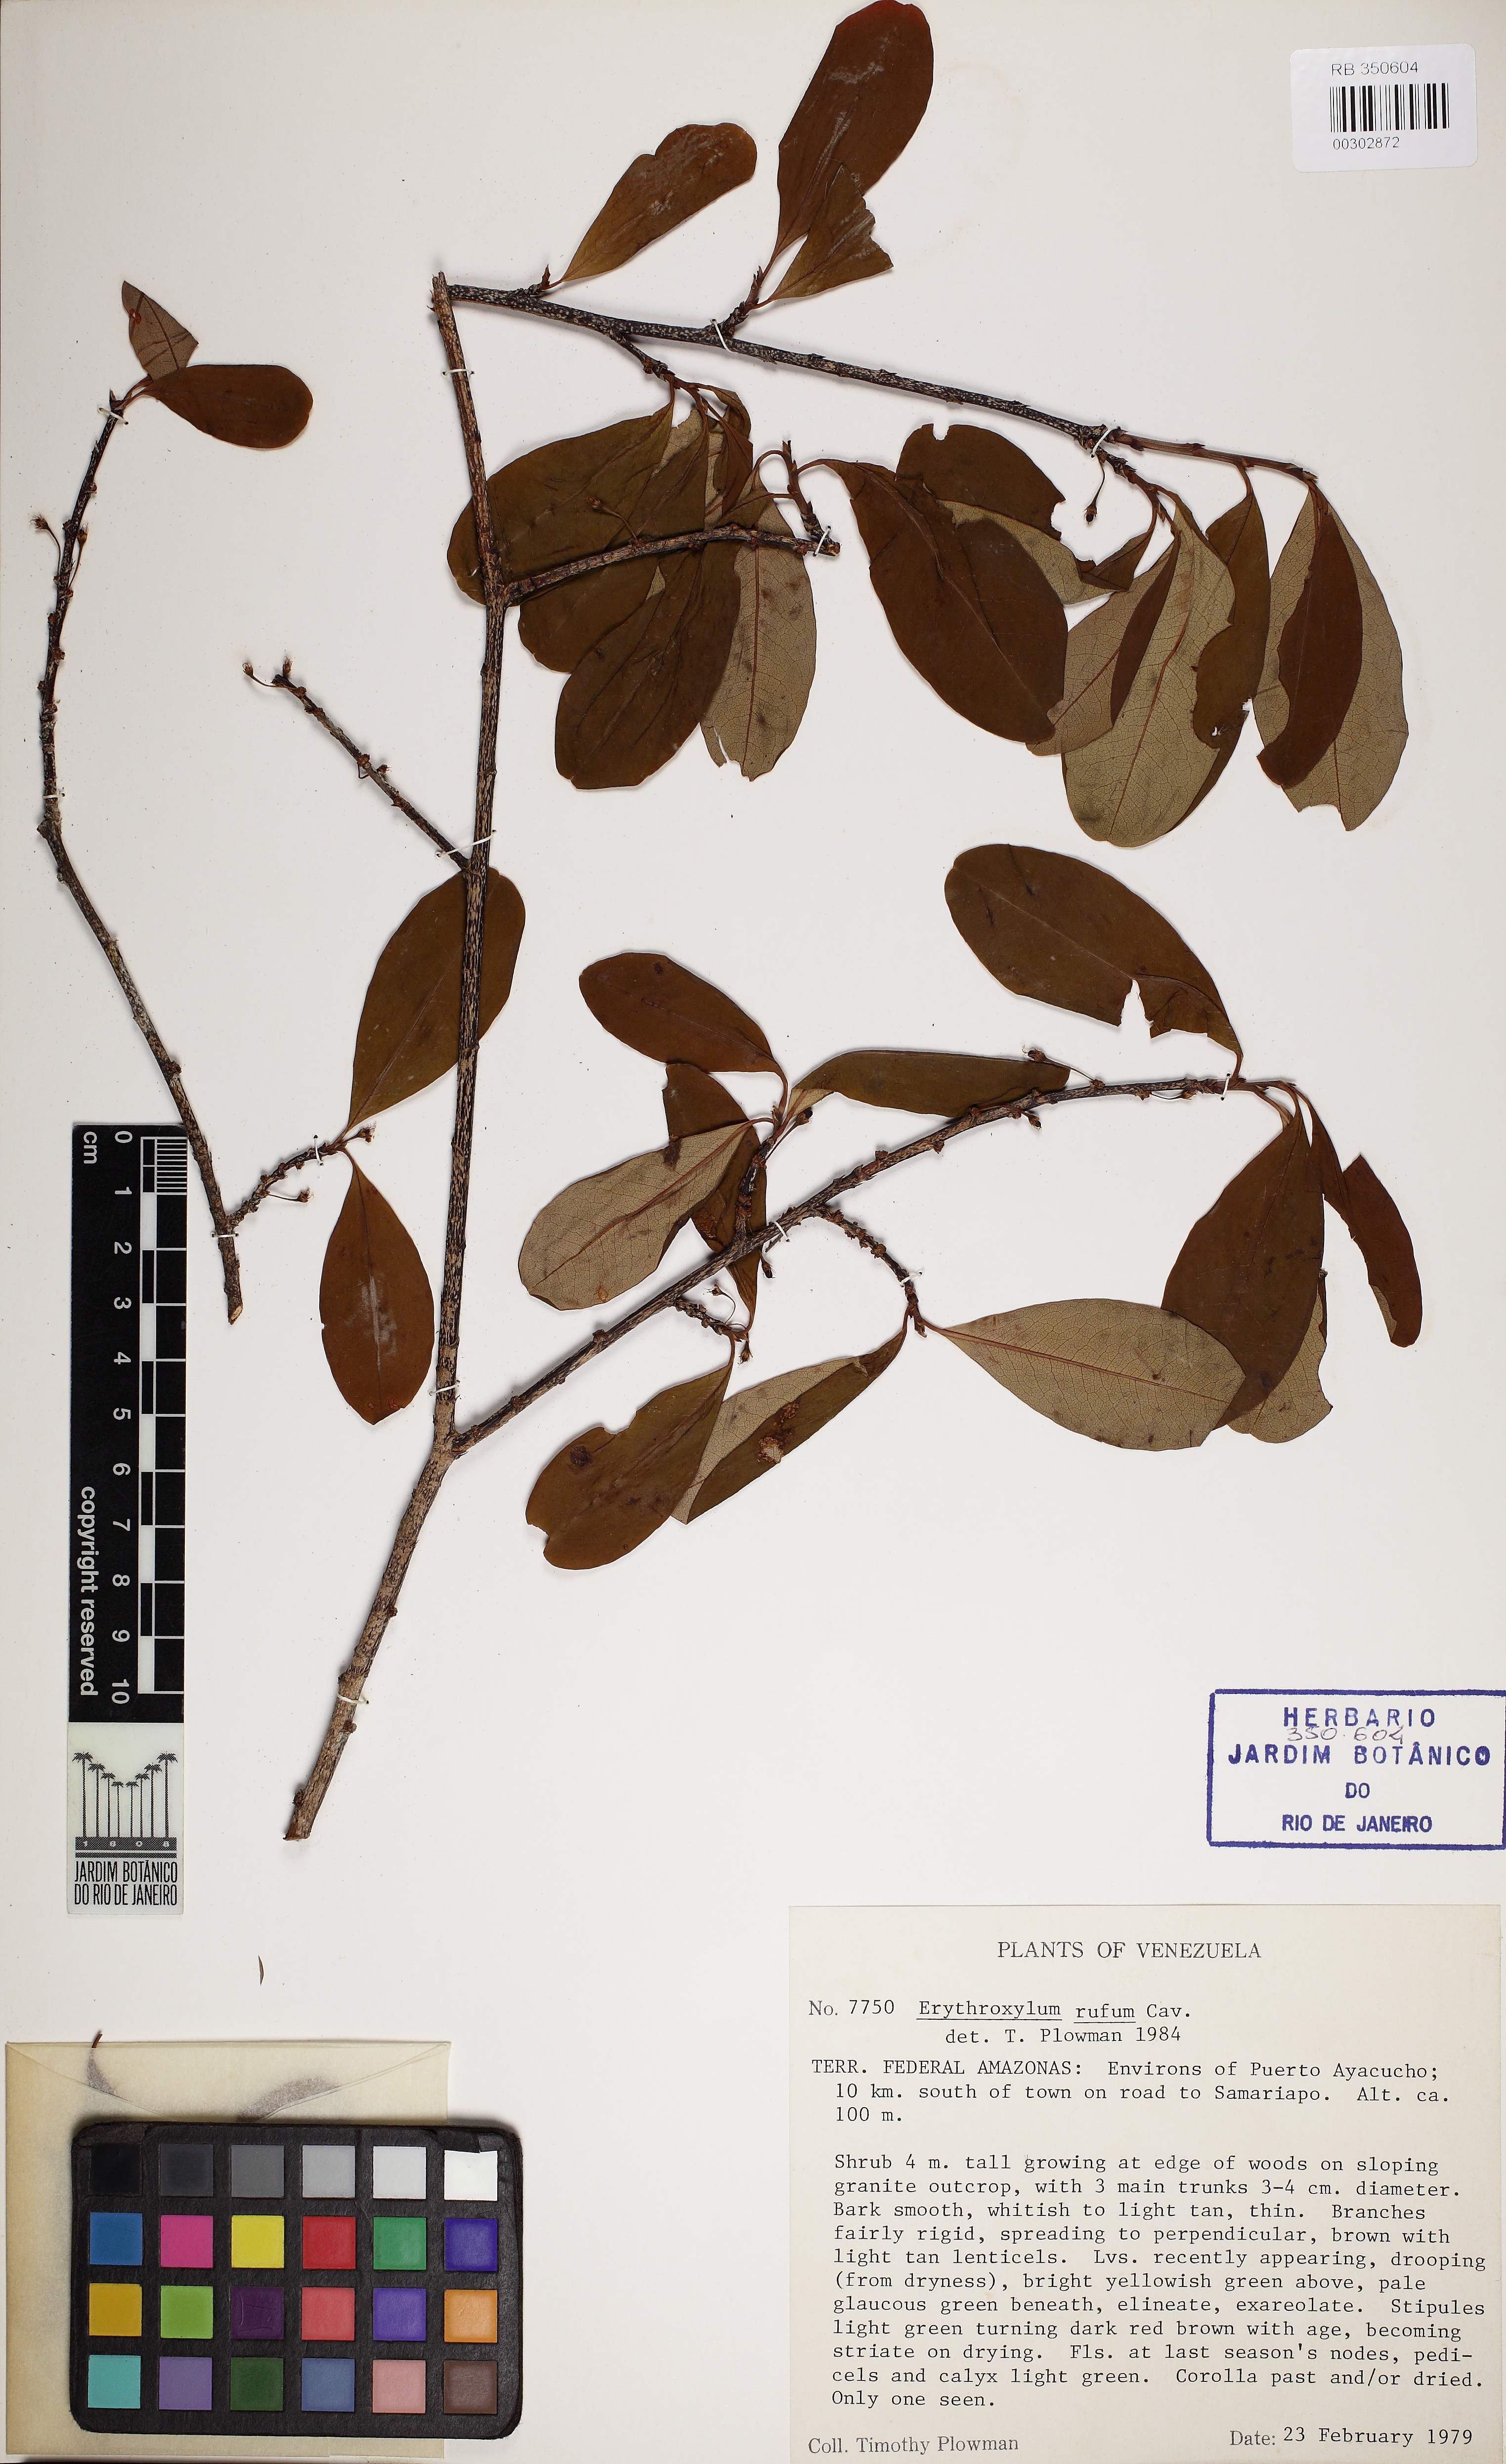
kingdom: Plantae
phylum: Tracheophyta
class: Magnoliopsida
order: Malpighiales
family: Erythroxylaceae
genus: Erythroxylum
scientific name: Erythroxylum rufum
